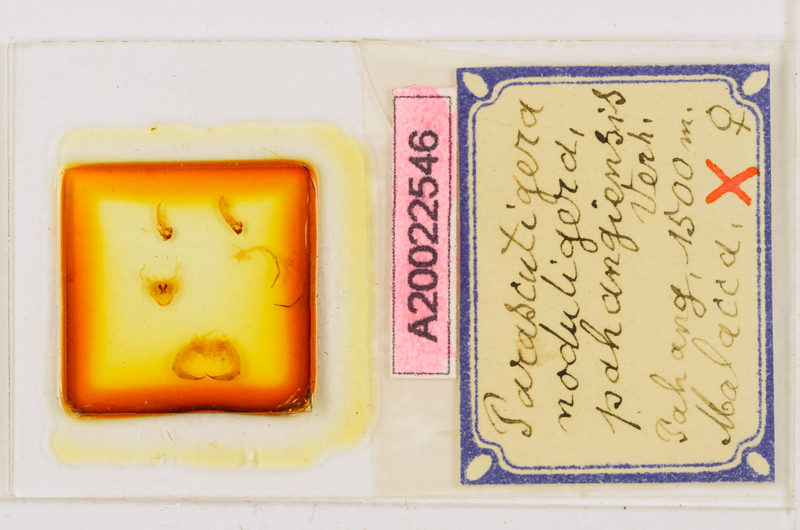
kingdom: Animalia
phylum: Arthropoda
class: Chilopoda
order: Scutigeromorpha
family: Scutigeridae
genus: Parascutigera
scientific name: Parascutigera noduligera
